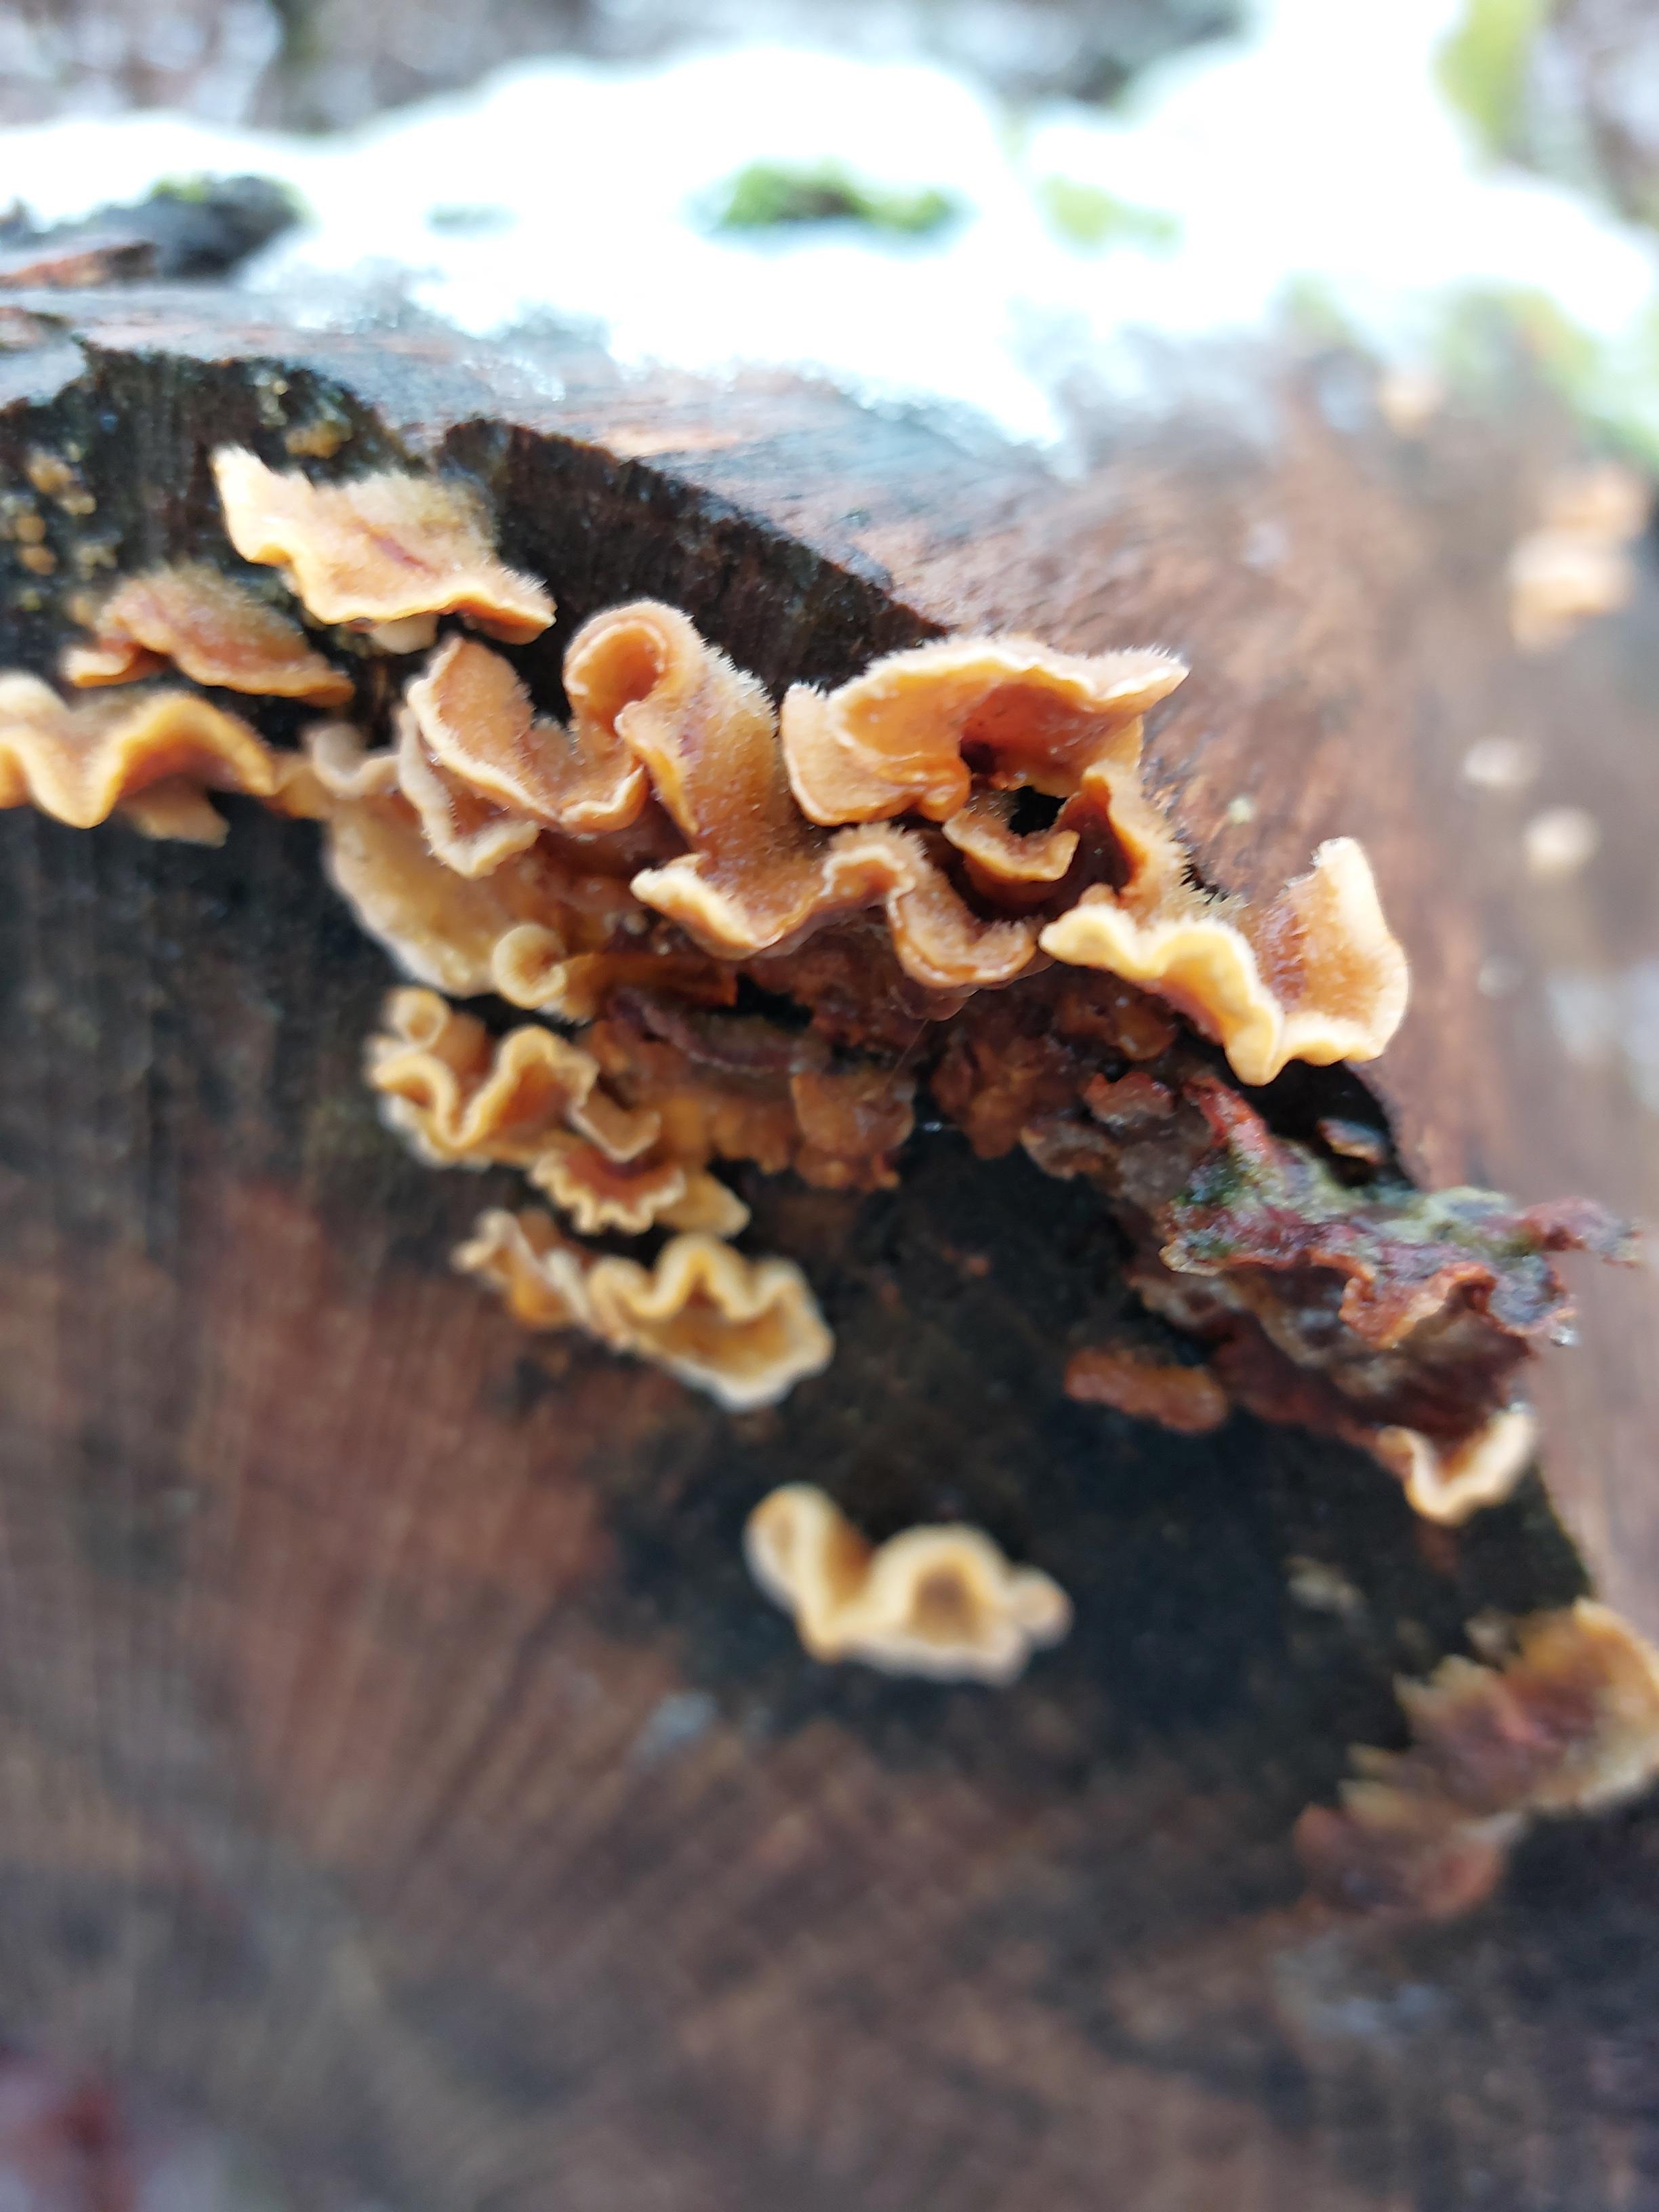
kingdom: Fungi
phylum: Basidiomycota
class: Agaricomycetes
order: Russulales
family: Stereaceae
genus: Stereum
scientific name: Stereum hirsutum
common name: håret lædersvamp
